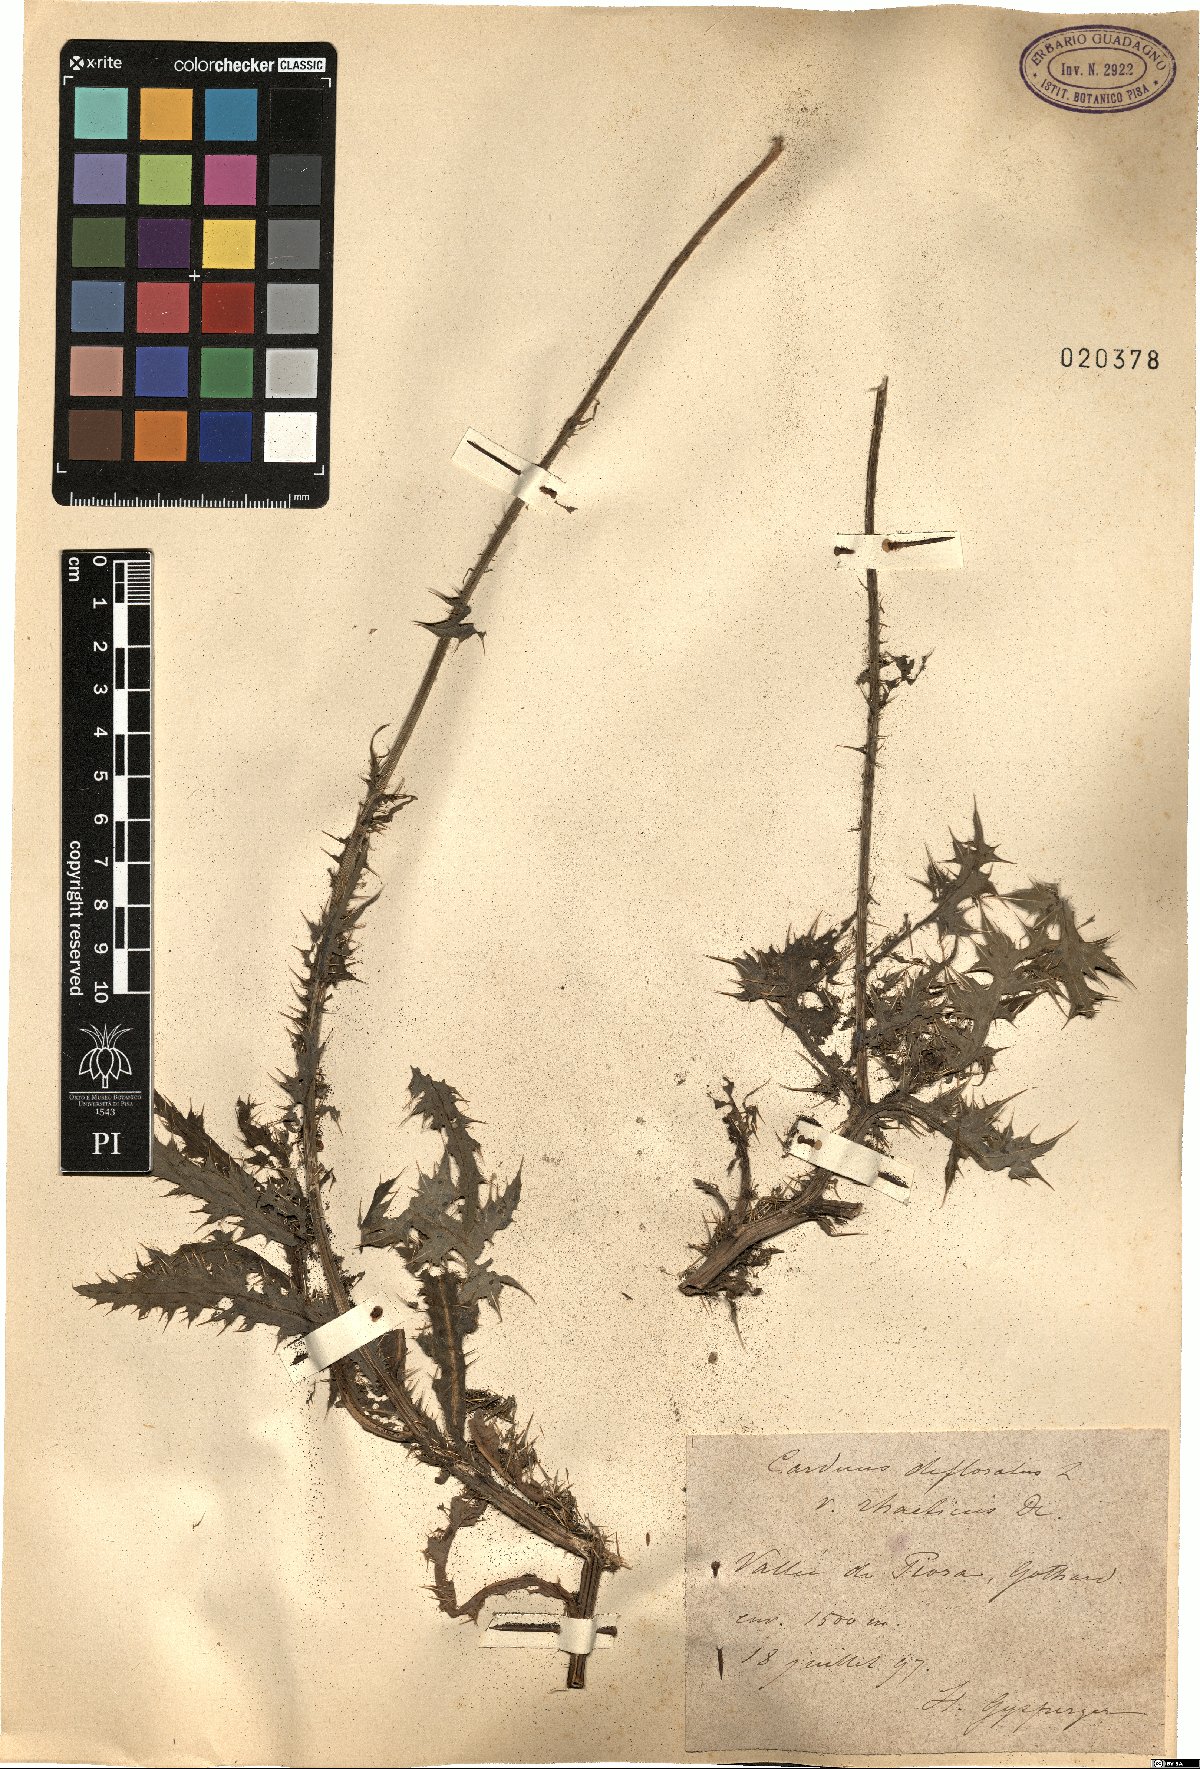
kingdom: Plantae
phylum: Tracheophyta
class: Magnoliopsida
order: Asterales
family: Asteraceae
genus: Carduus
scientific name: Carduus defloratus
